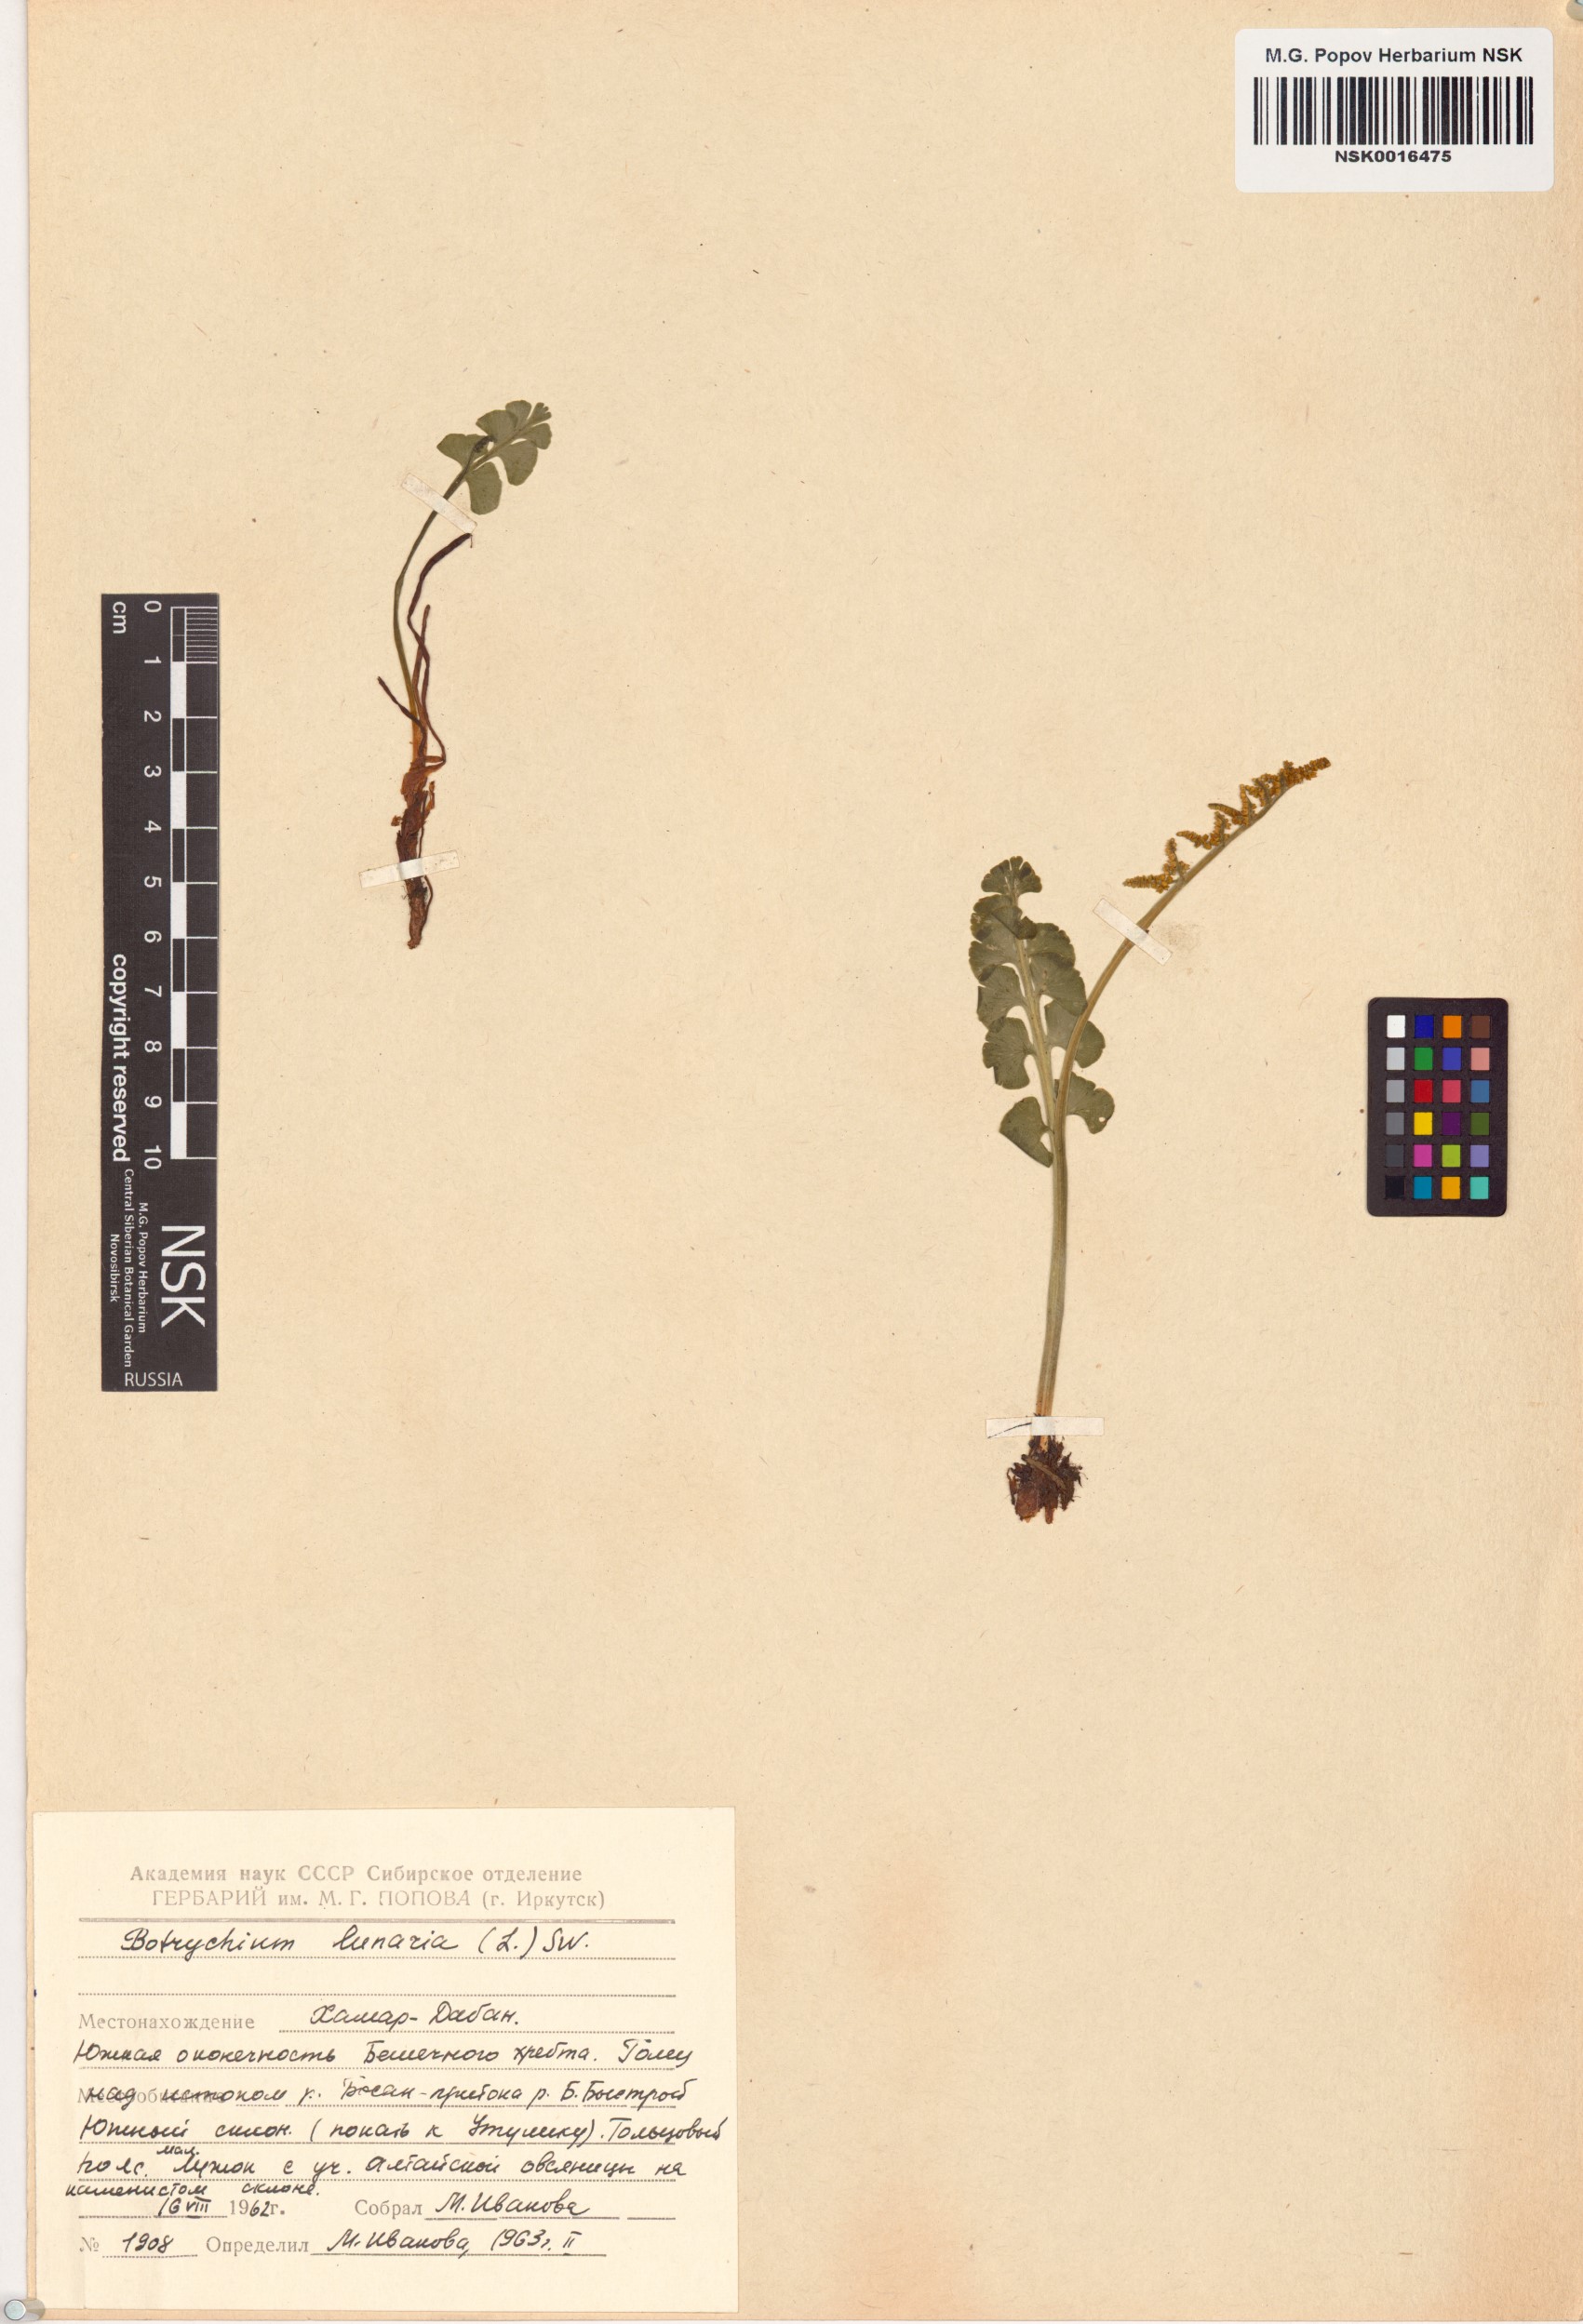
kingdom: Plantae
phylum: Tracheophyta
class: Polypodiopsida
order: Ophioglossales
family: Ophioglossaceae
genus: Botrychium
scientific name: Botrychium lunaria
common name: Moonwort
